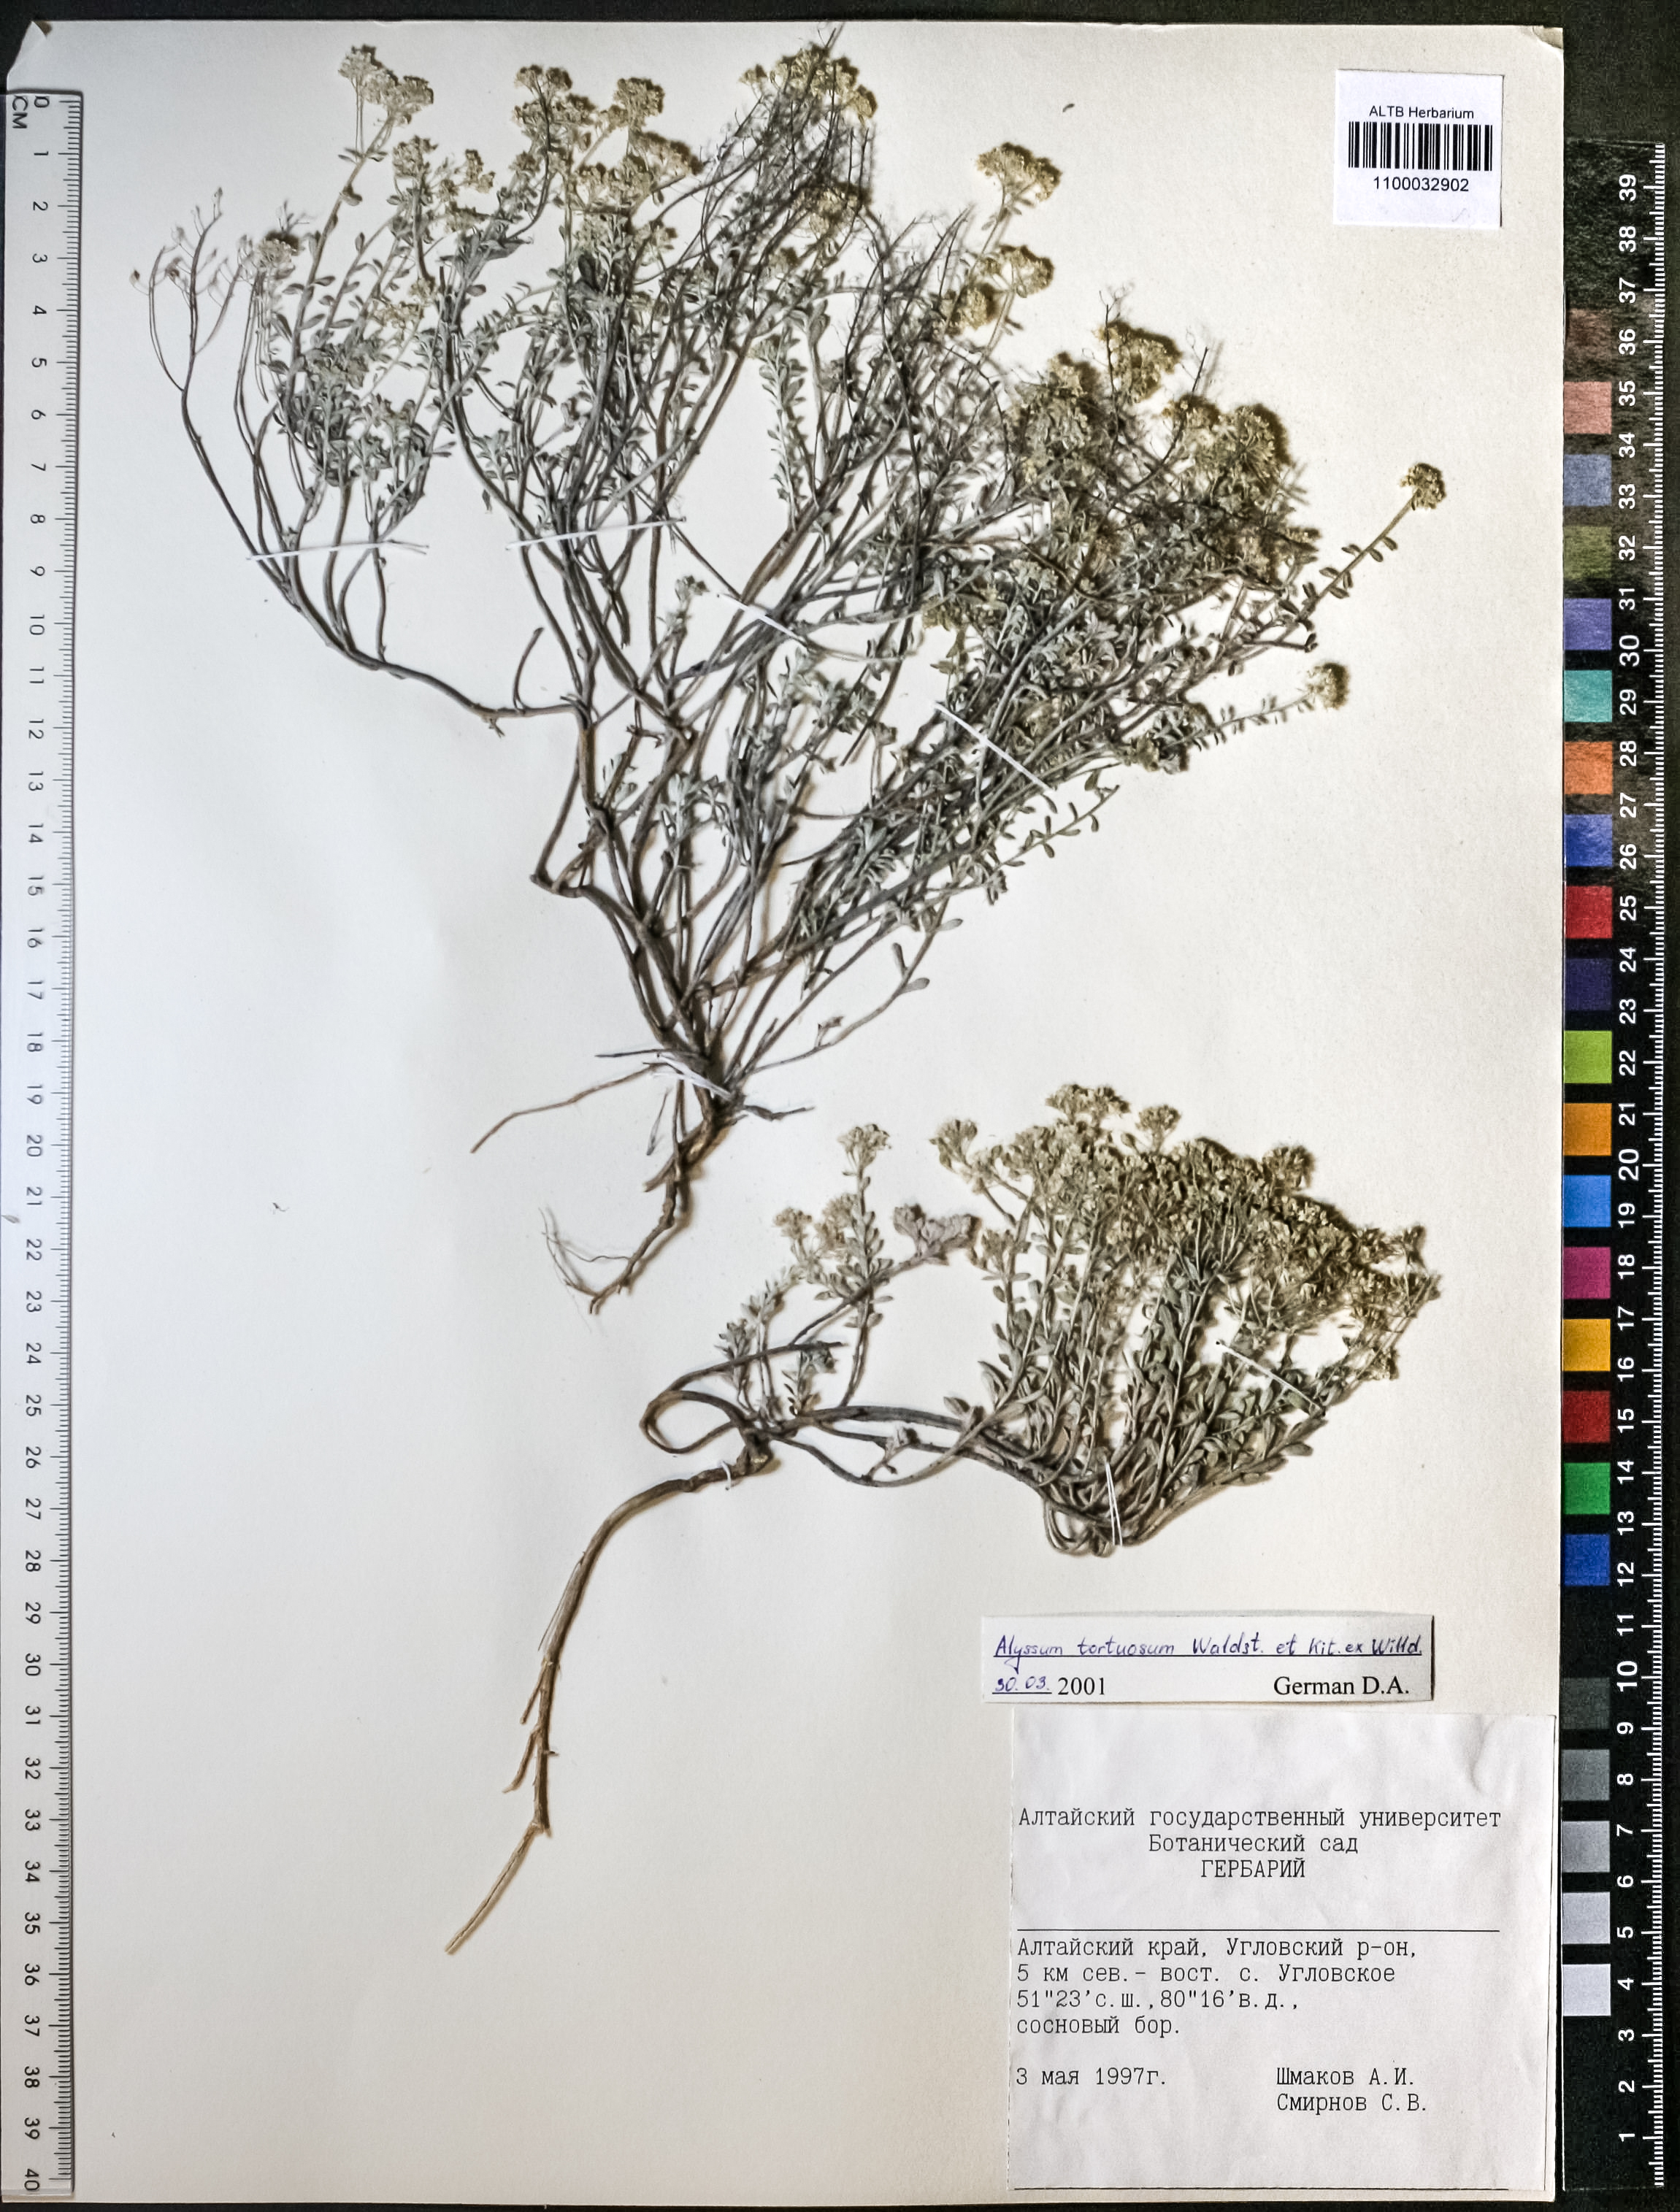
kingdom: Plantae
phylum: Tracheophyta
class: Magnoliopsida
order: Brassicales
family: Brassicaceae
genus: Odontarrhena
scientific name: Odontarrhena alpestris
